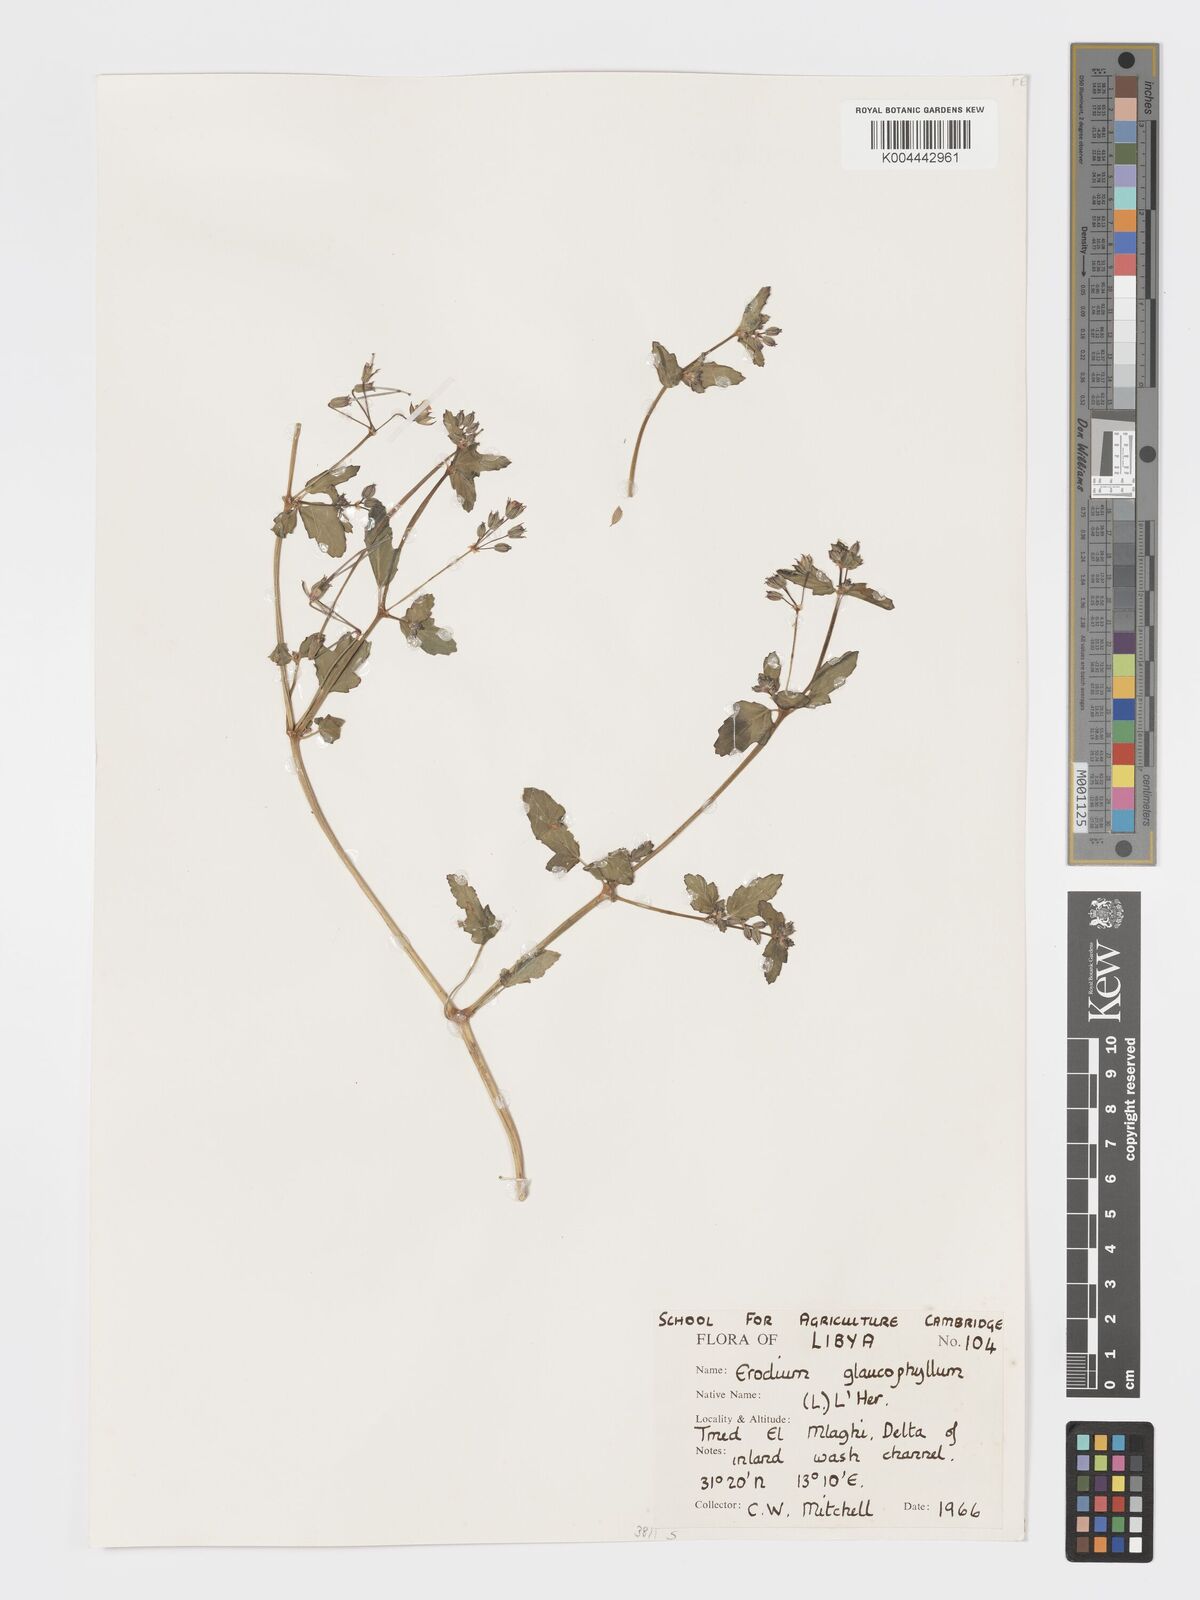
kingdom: Plantae
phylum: Tracheophyta
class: Magnoliopsida
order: Geraniales
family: Geraniaceae
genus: Erodium
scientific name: Erodium glaucophyllum
